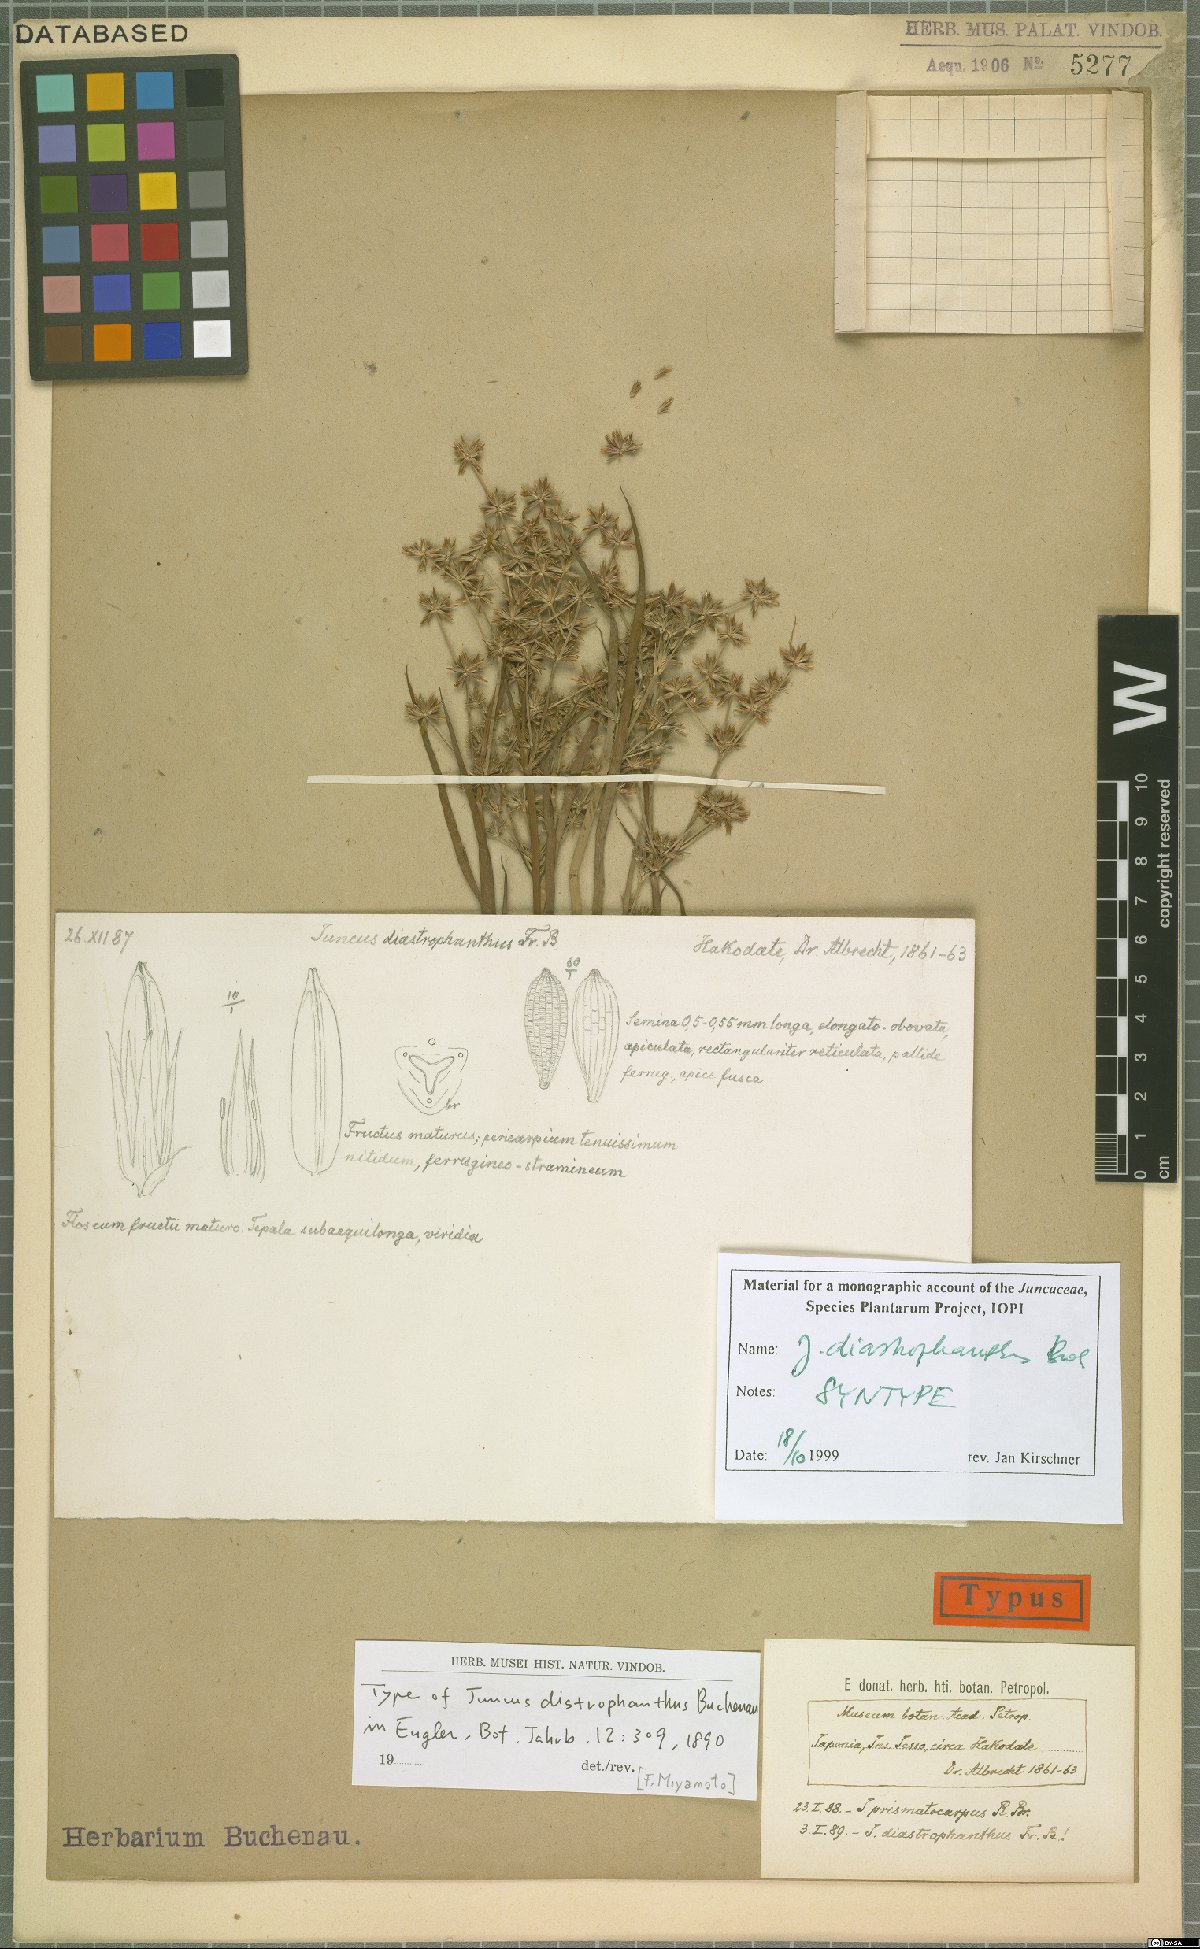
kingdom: Plantae
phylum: Tracheophyta
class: Liliopsida
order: Poales
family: Juncaceae
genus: Juncus
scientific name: Juncus diastrophanthus
